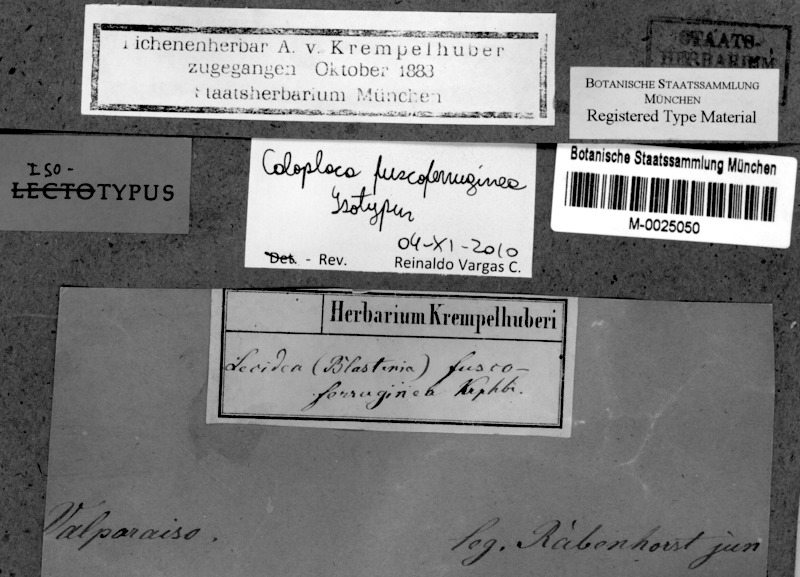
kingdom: Fungi
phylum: Ascomycota
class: Lecanoromycetes
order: Teloschistales
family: Teloschistaceae
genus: Caloplaca
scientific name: Caloplaca
